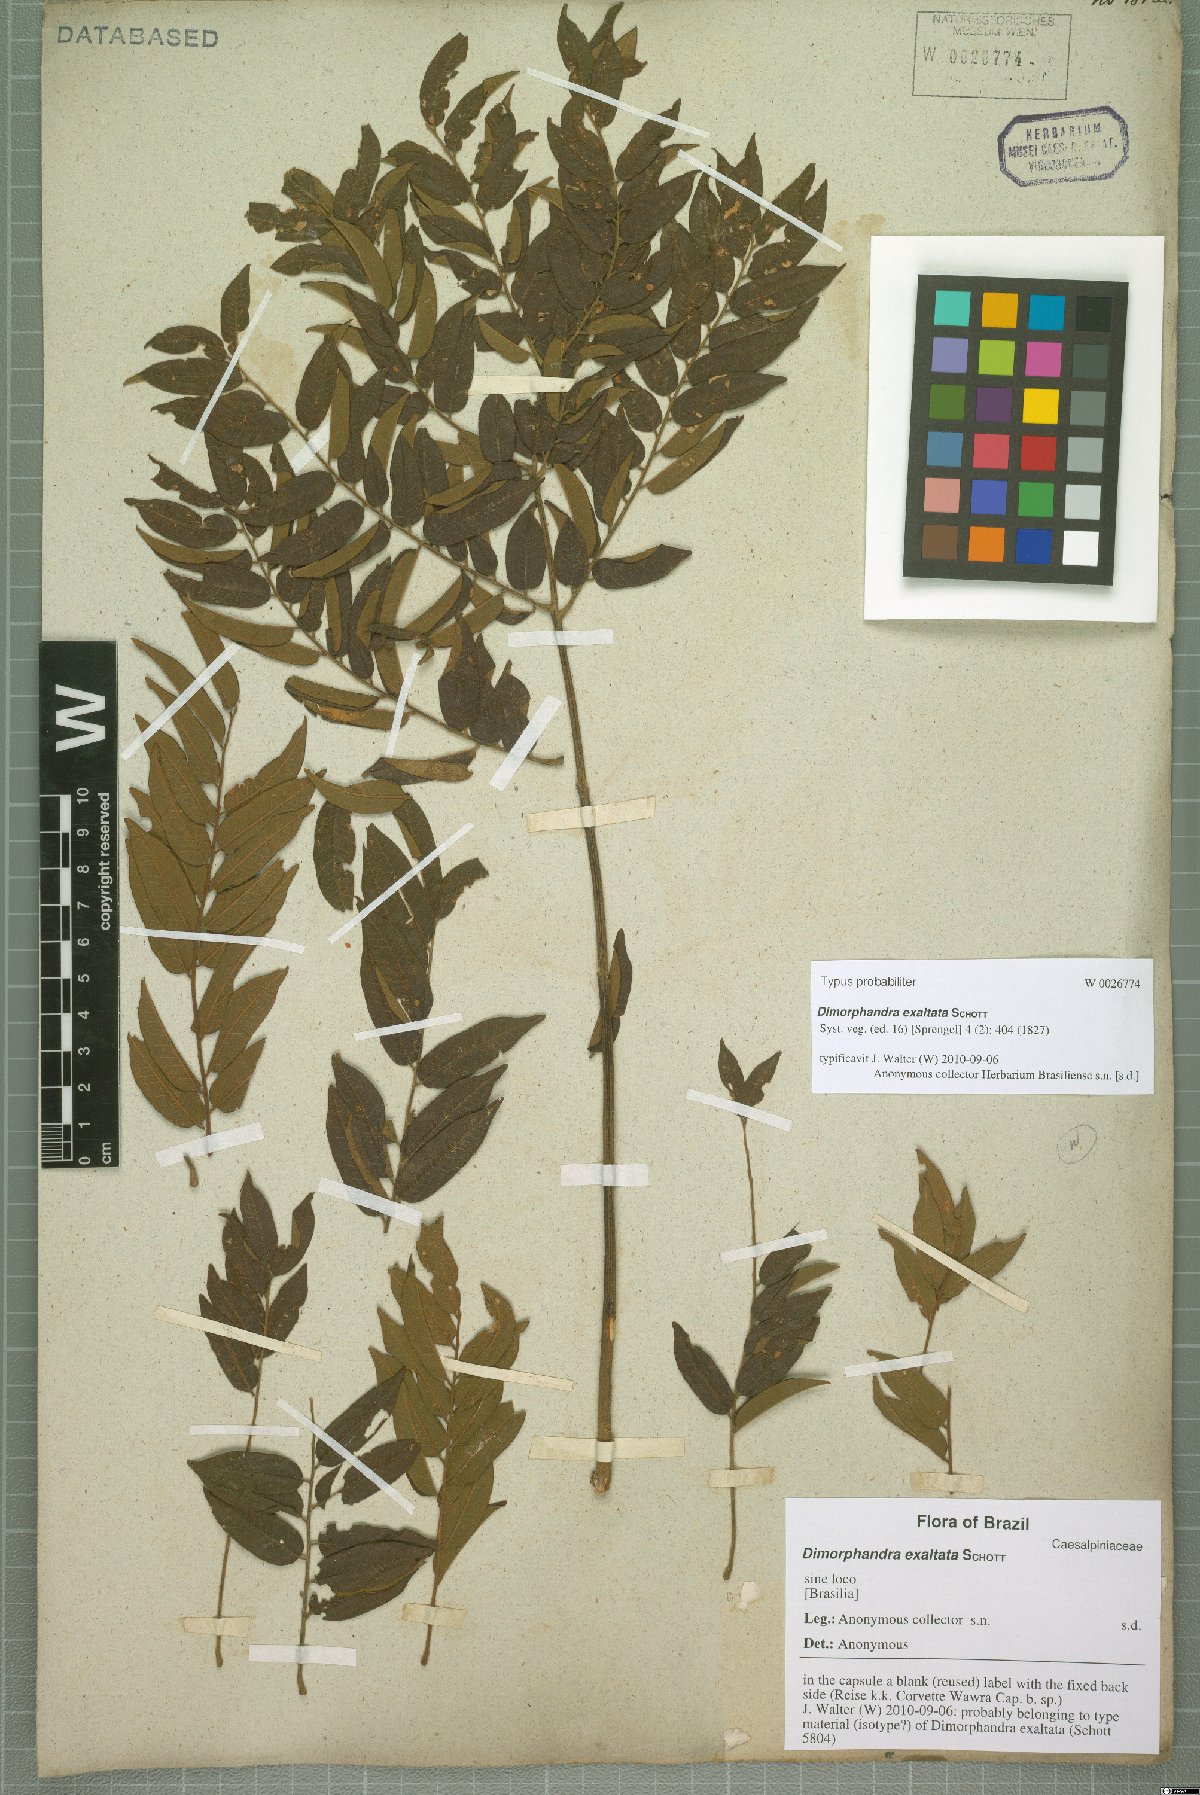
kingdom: Plantae
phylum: Tracheophyta
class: Magnoliopsida
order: Fabales
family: Fabaceae
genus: Dimorphandra
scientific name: Dimorphandra exaltata
